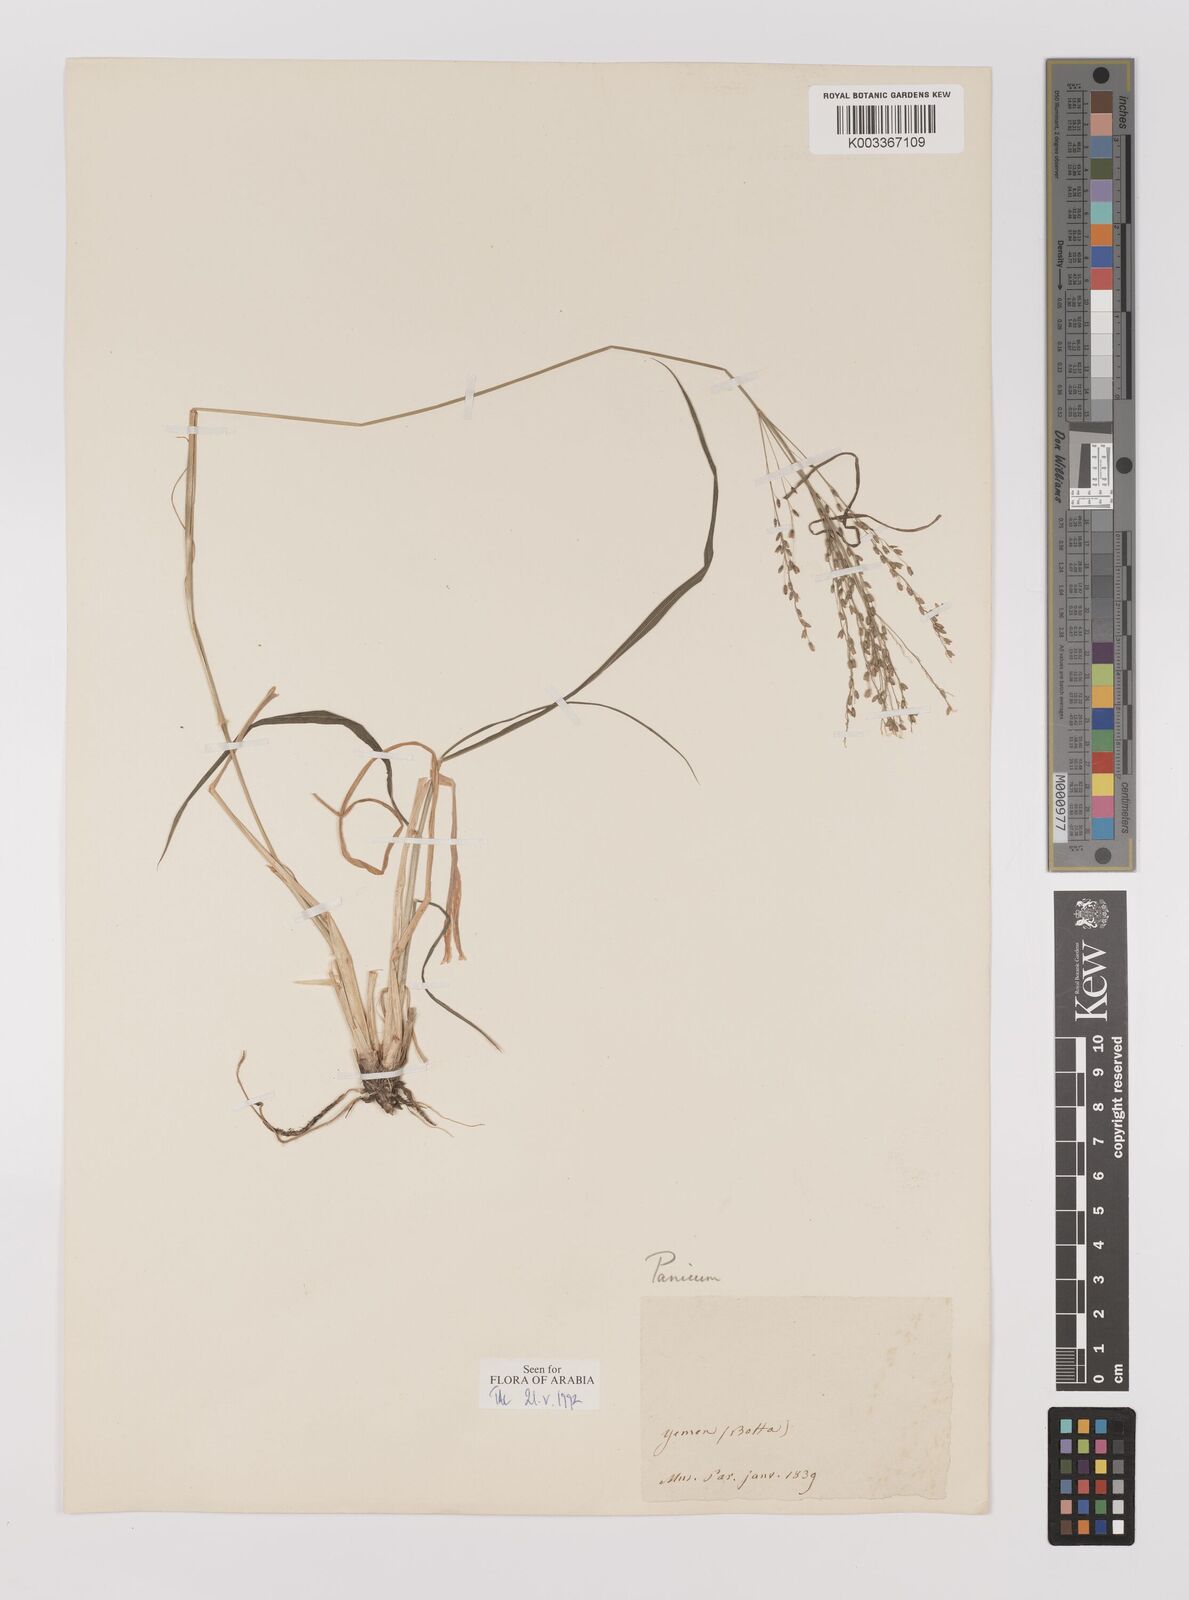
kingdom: Plantae
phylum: Tracheophyta
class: Liliopsida
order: Poales
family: Poaceae
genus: Megathyrsus
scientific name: Megathyrsus maximus
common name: Guineagrass
